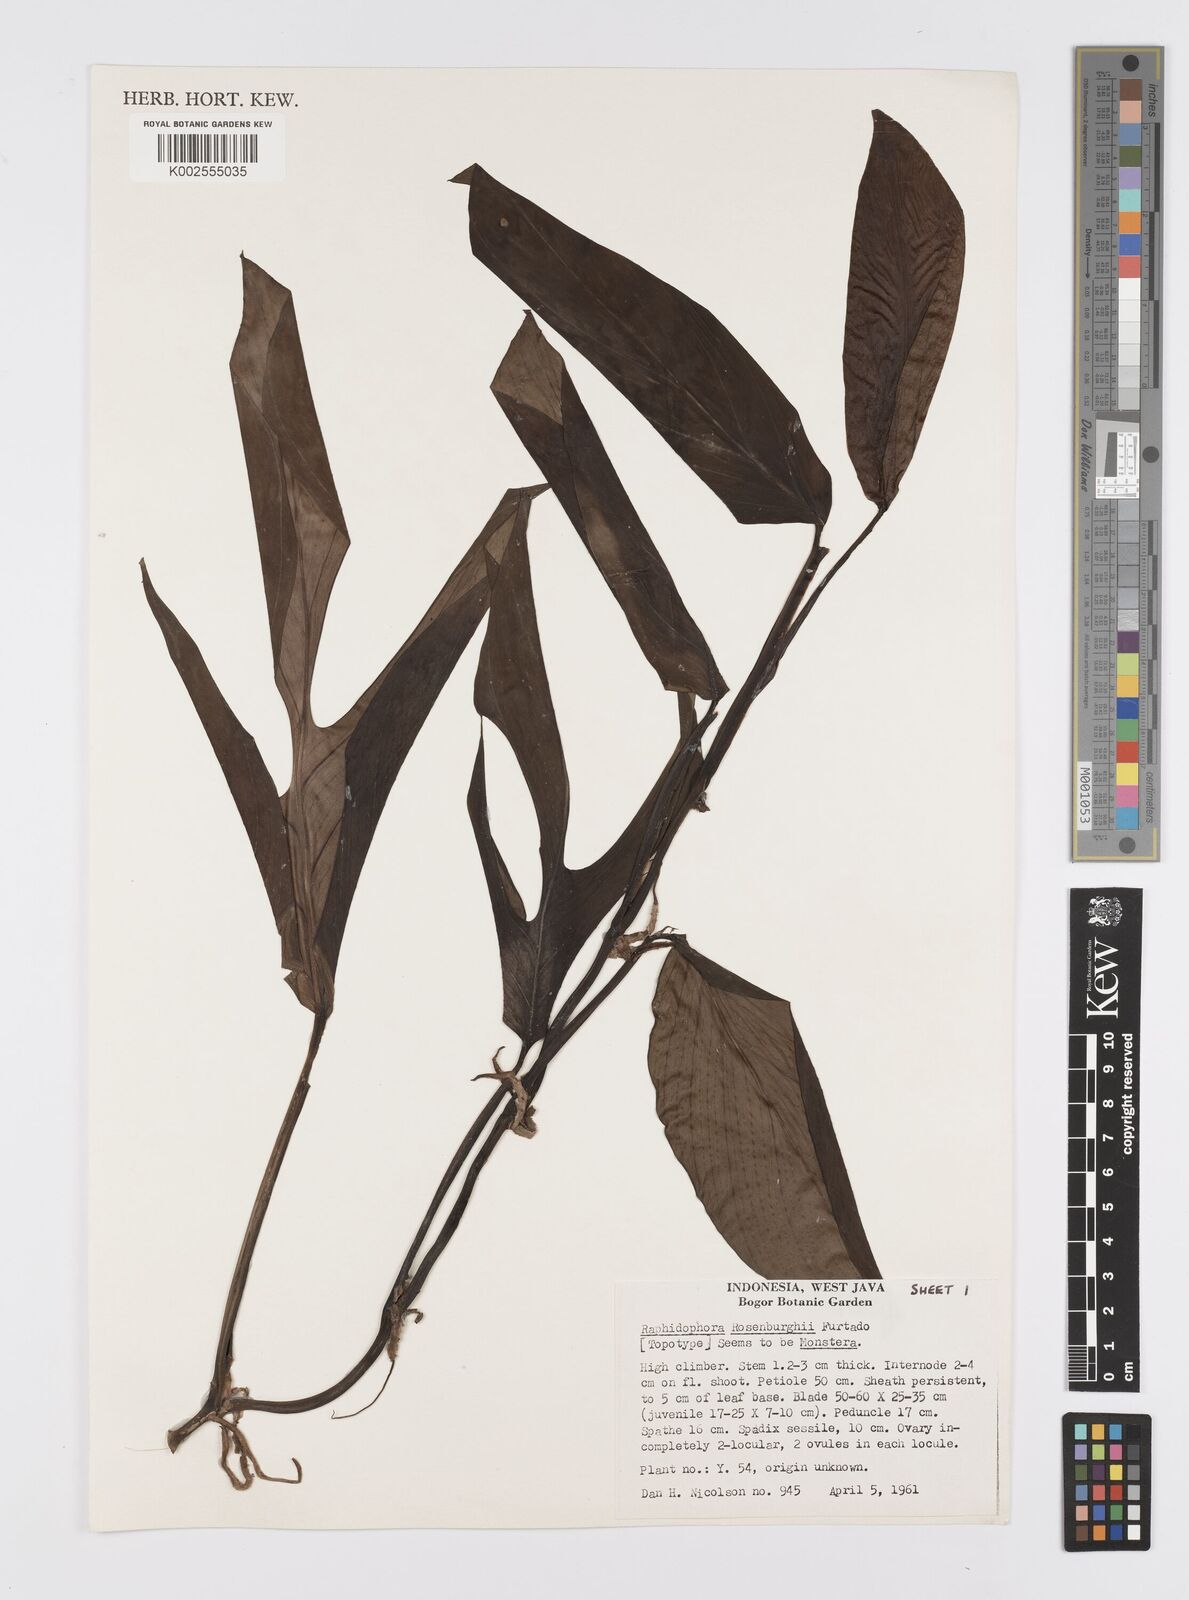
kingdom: Plantae
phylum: Tracheophyta
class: Liliopsida
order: Alismatales
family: Araceae
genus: Monstera
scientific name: Monstera
